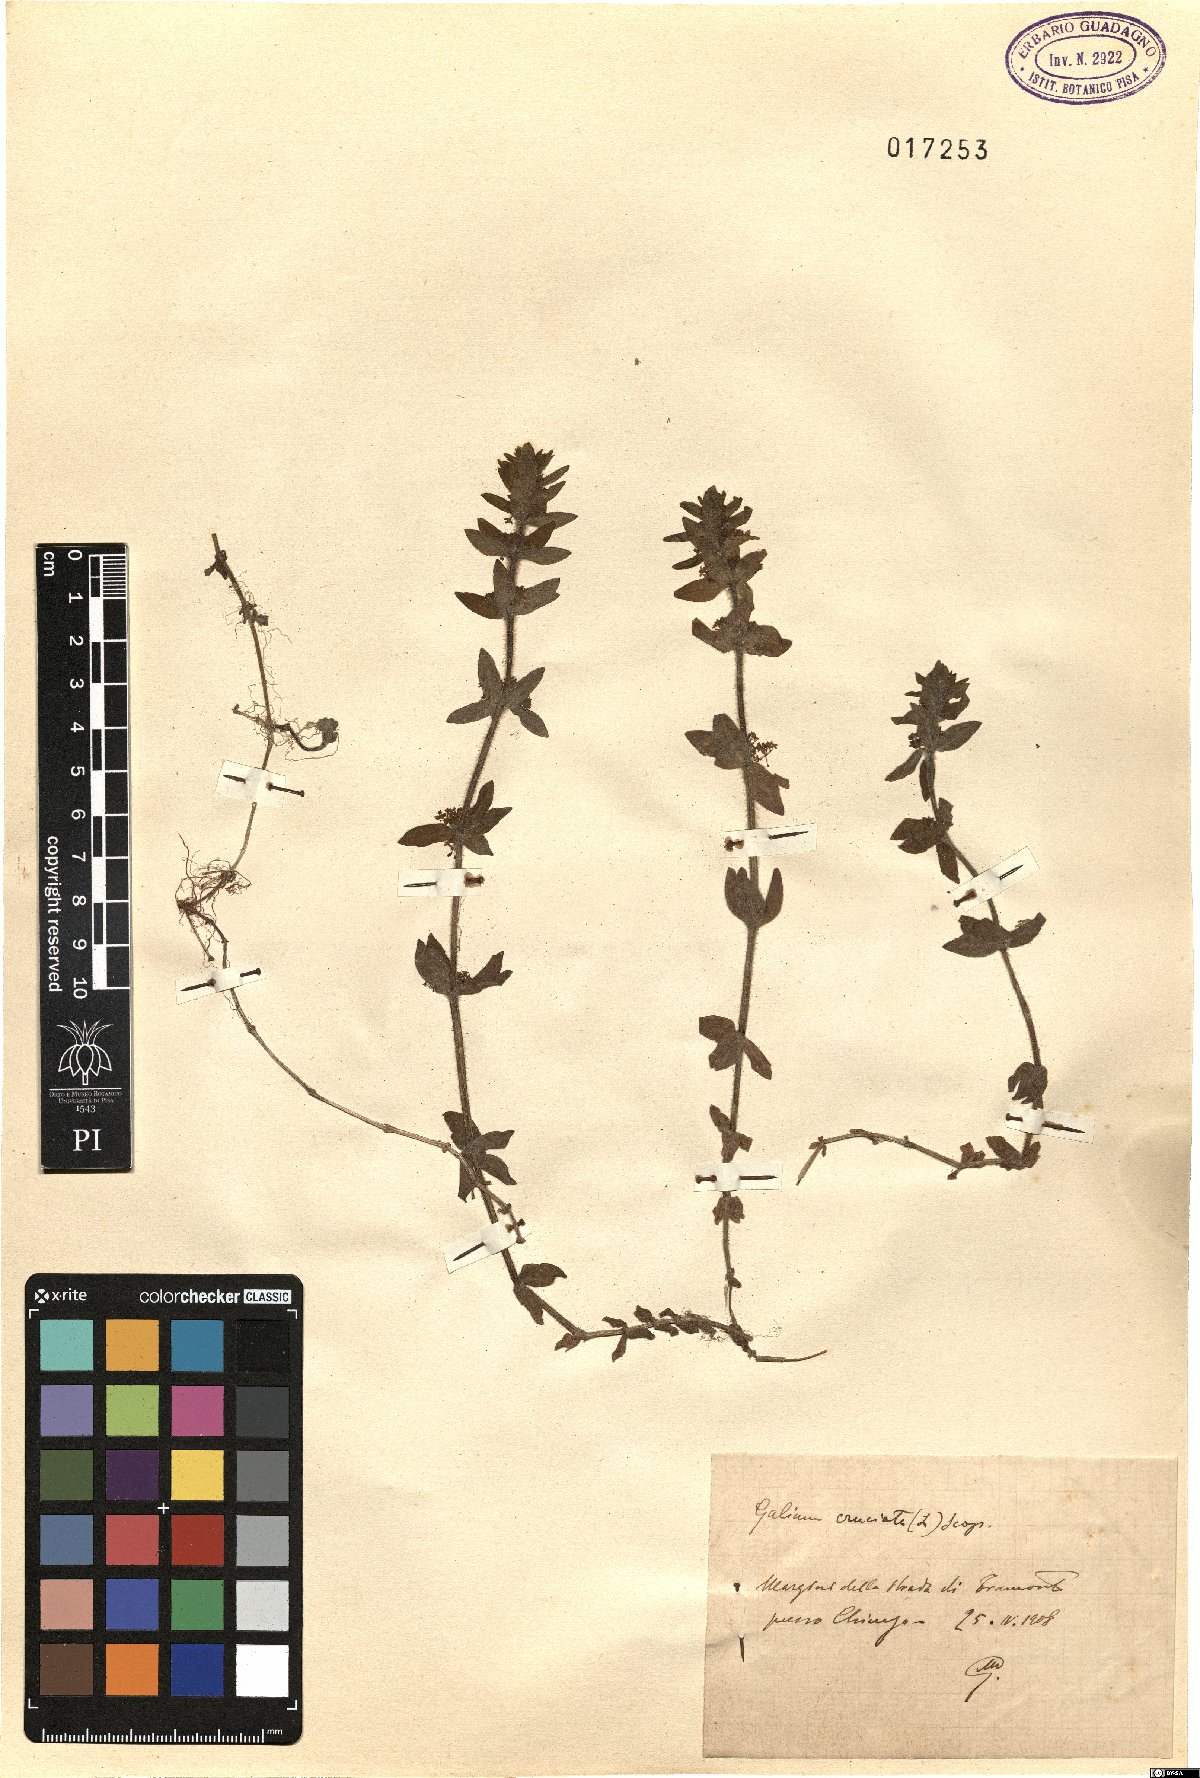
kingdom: Plantae
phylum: Tracheophyta
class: Magnoliopsida
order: Gentianales
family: Rubiaceae
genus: Cruciata
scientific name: Cruciata laevipes
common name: Crosswort
